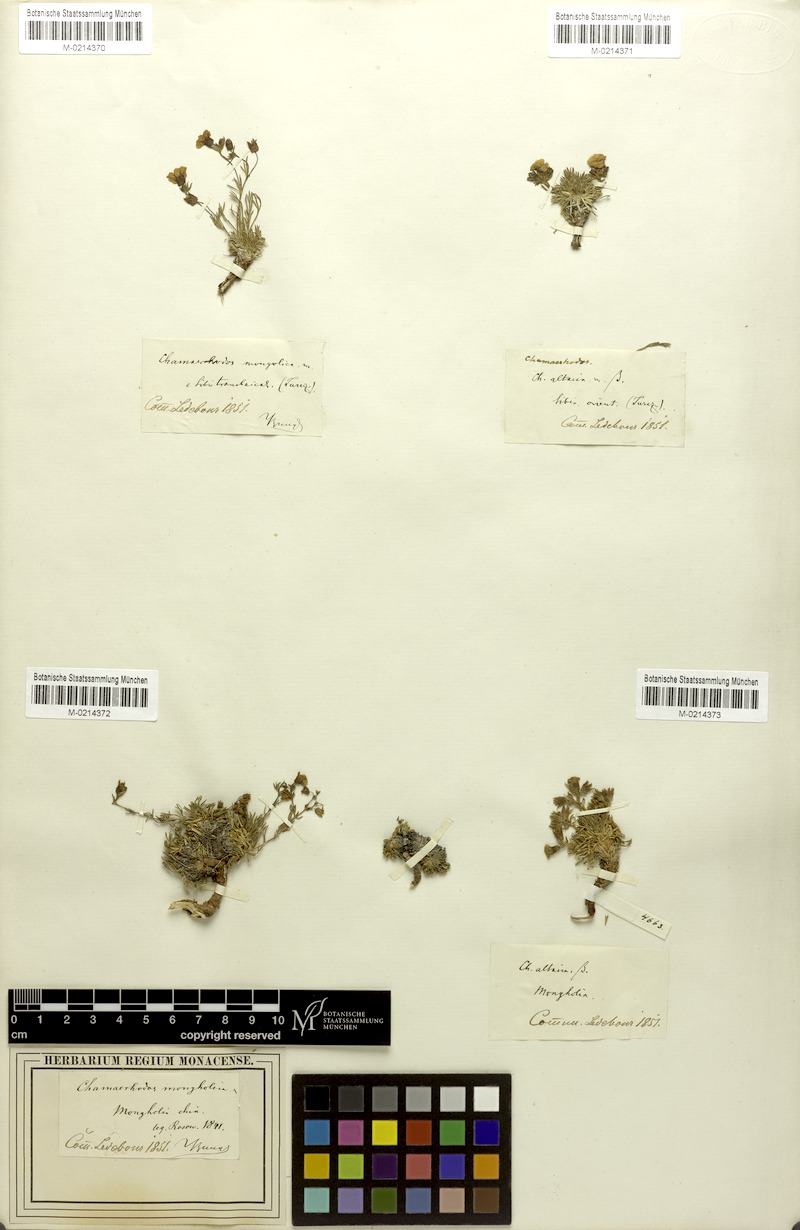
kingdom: Plantae
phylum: Tracheophyta
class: Magnoliopsida
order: Rosales
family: Rosaceae
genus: Chamaerhodos
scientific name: Chamaerhodos altaica
